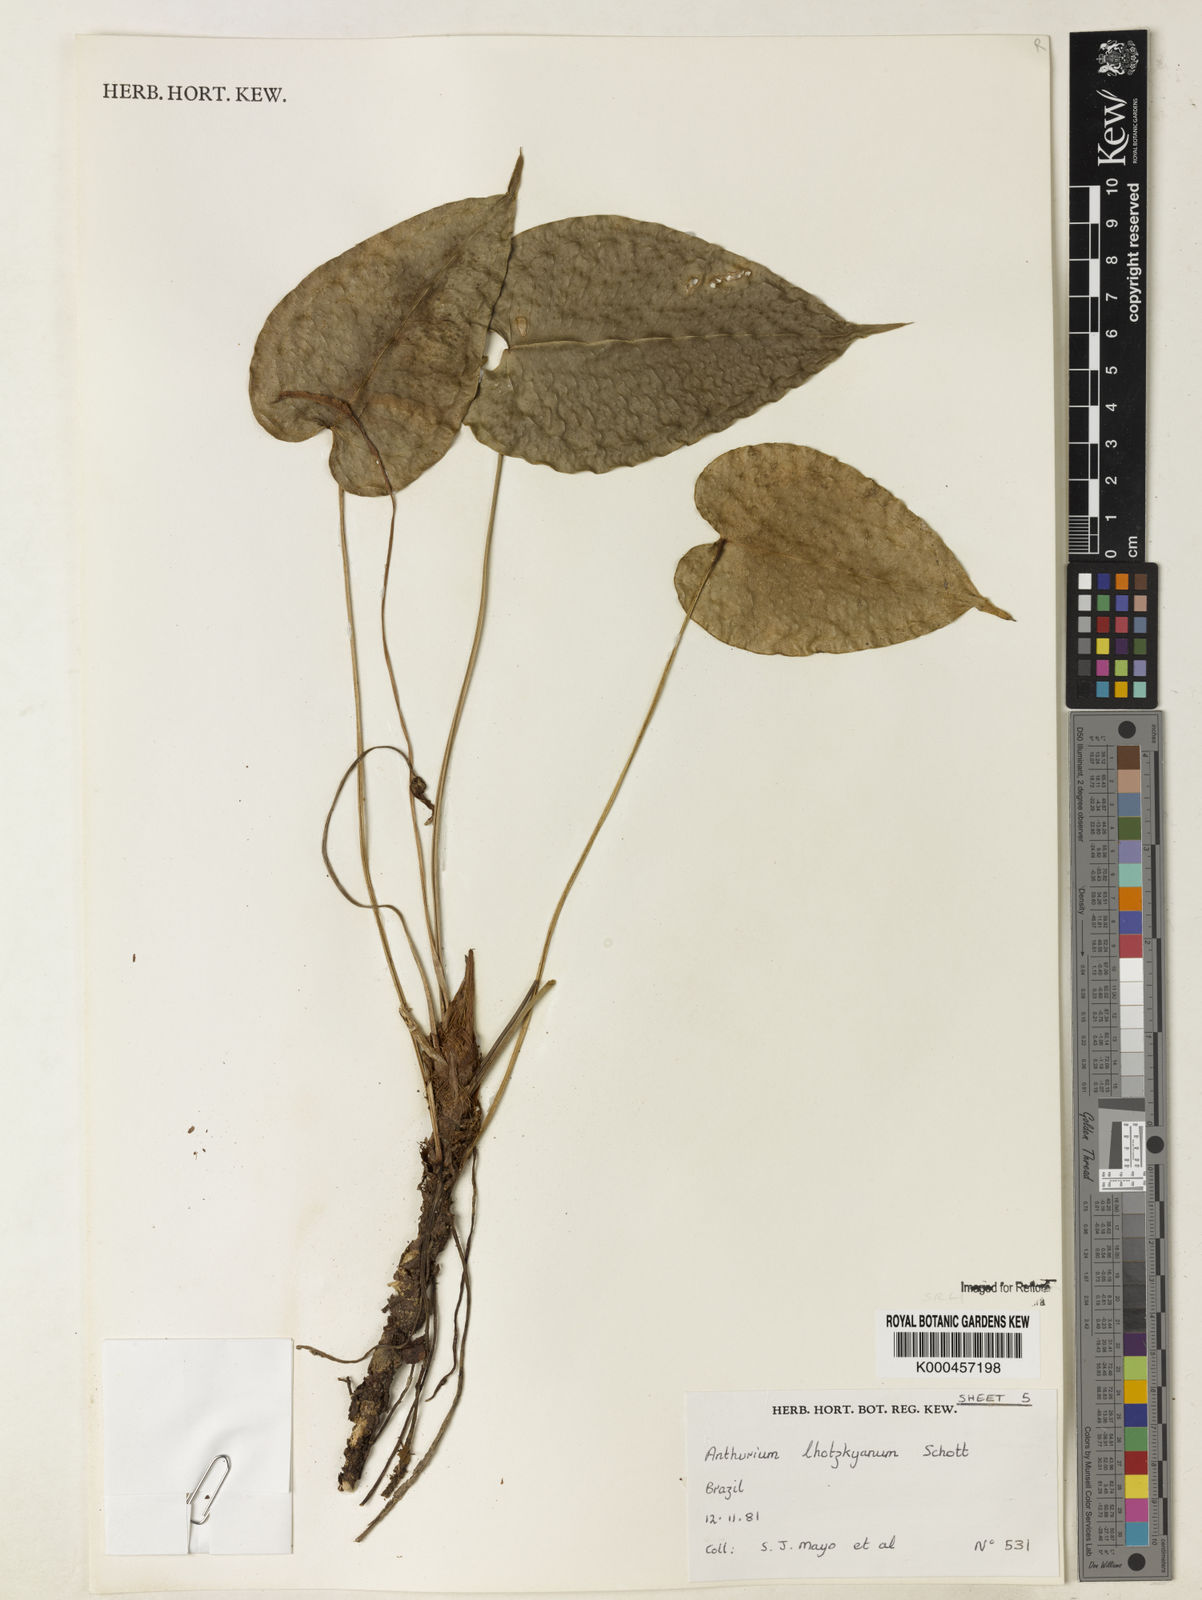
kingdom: Plantae
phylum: Tracheophyta
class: Liliopsida
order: Alismatales
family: Araceae
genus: Anthurium
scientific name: Anthurium augustinum
